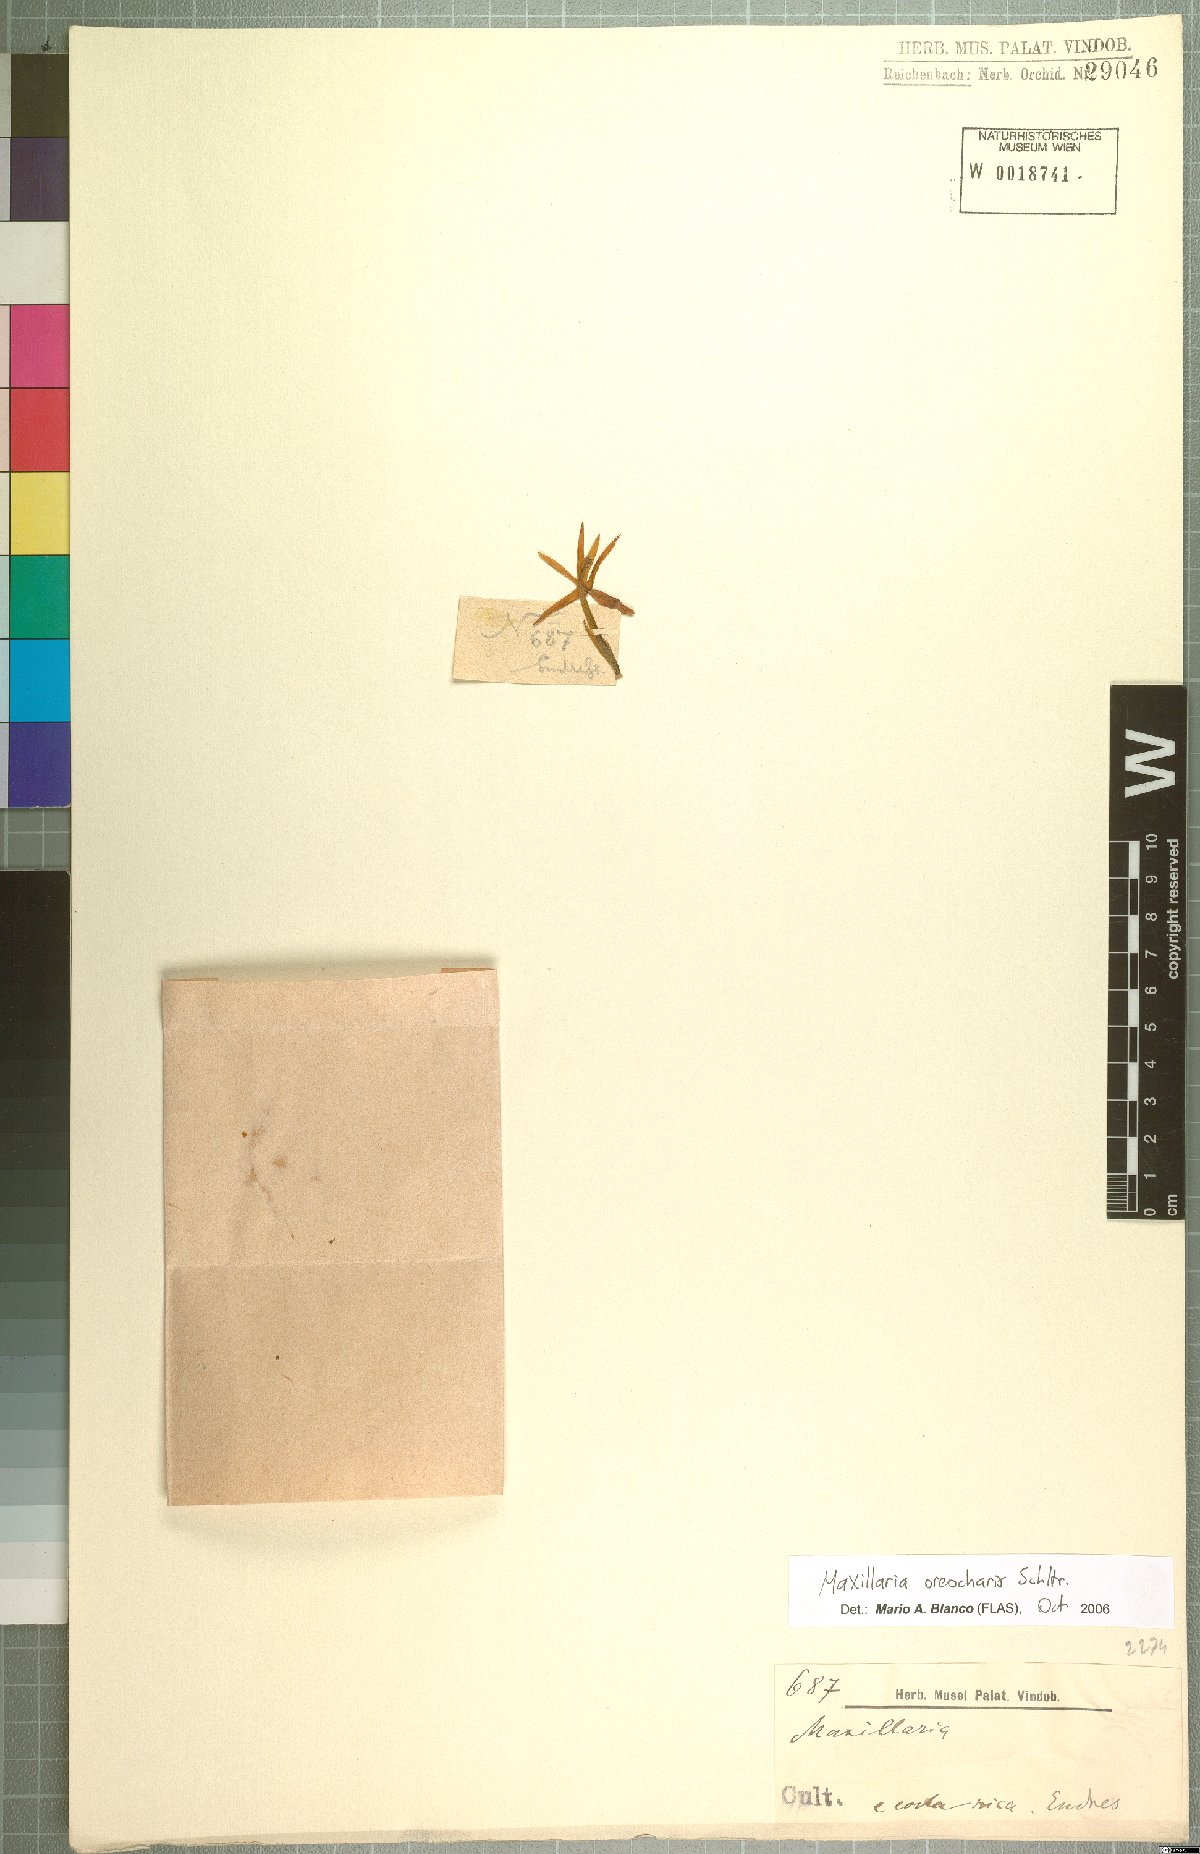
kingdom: Plantae
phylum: Tracheophyta
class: Liliopsida
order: Asparagales
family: Orchidaceae
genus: Maxillaria
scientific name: Maxillaria oreocharis
